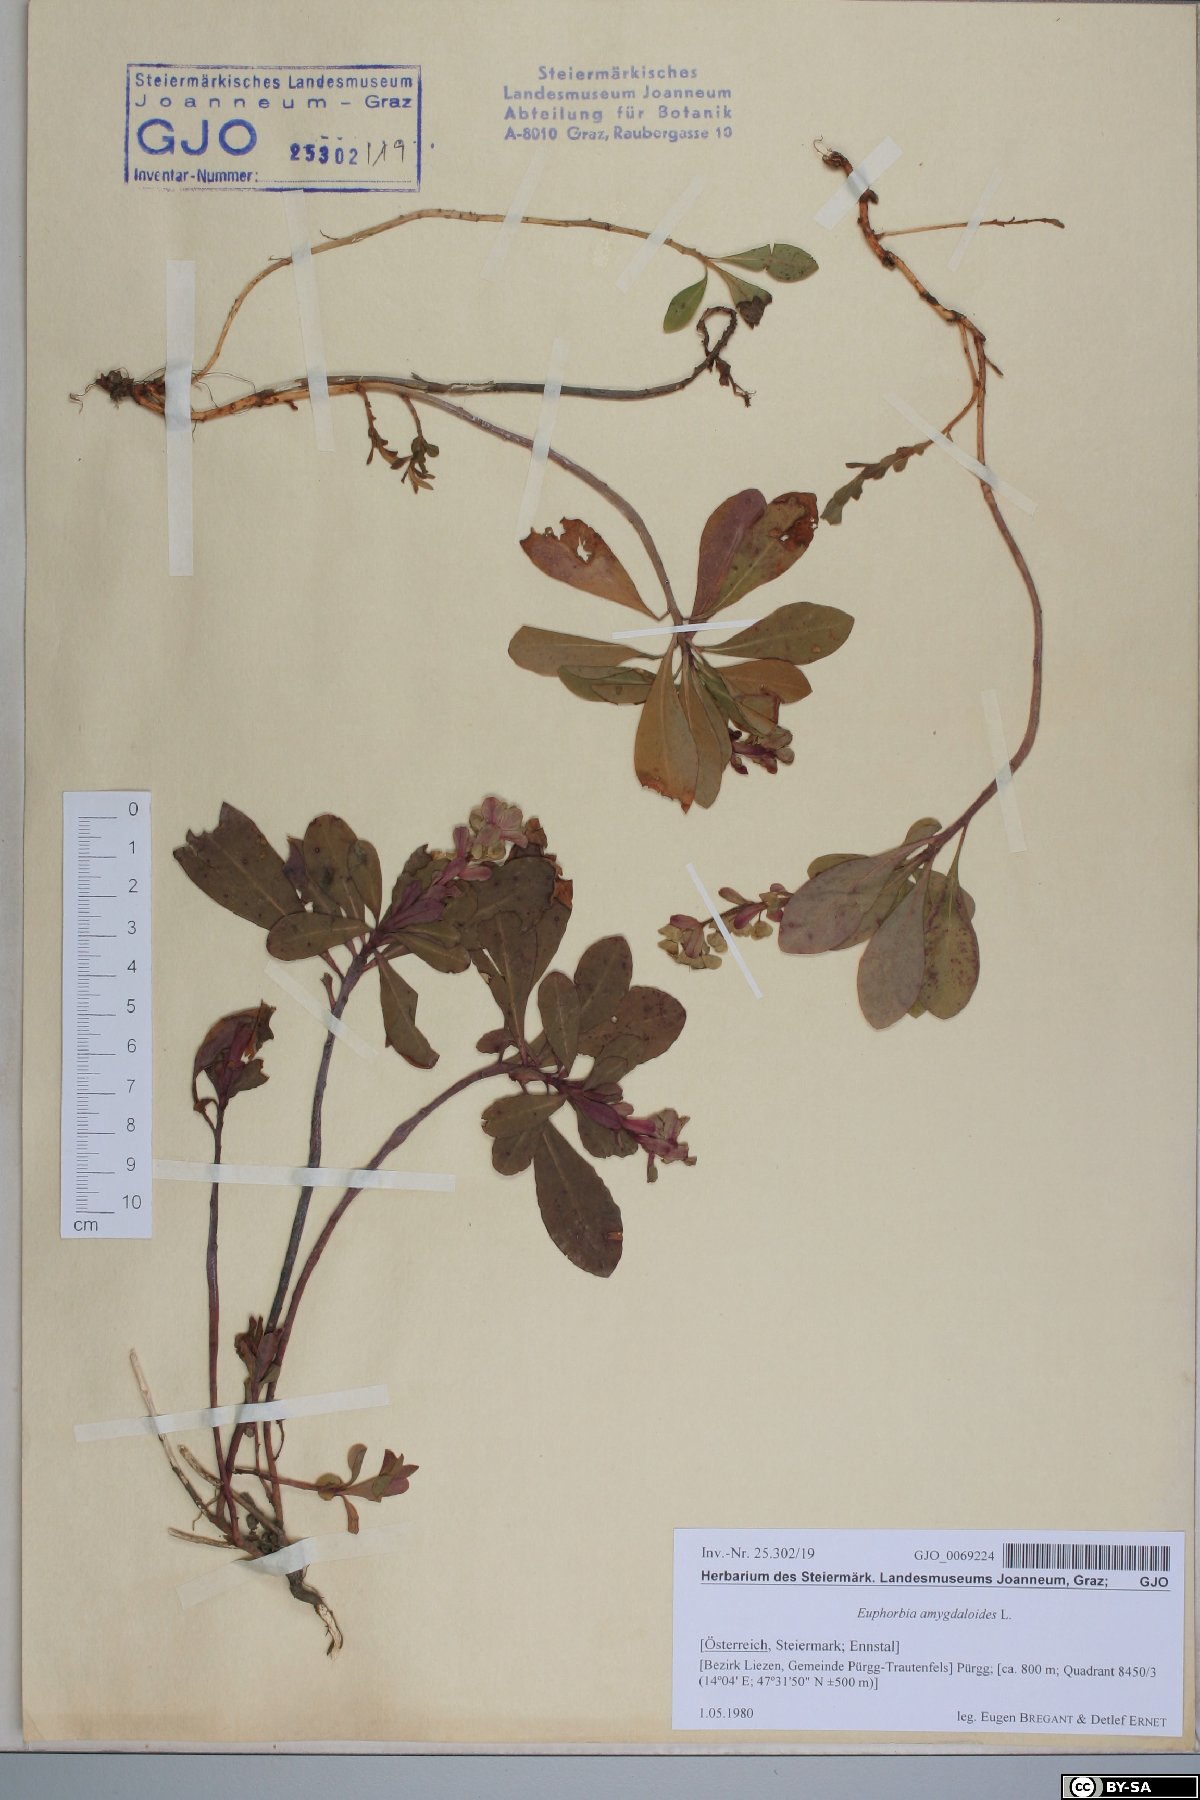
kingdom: Plantae
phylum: Tracheophyta
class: Magnoliopsida
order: Malpighiales
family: Euphorbiaceae
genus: Euphorbia
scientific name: Euphorbia amygdaloides
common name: Wood spurge
